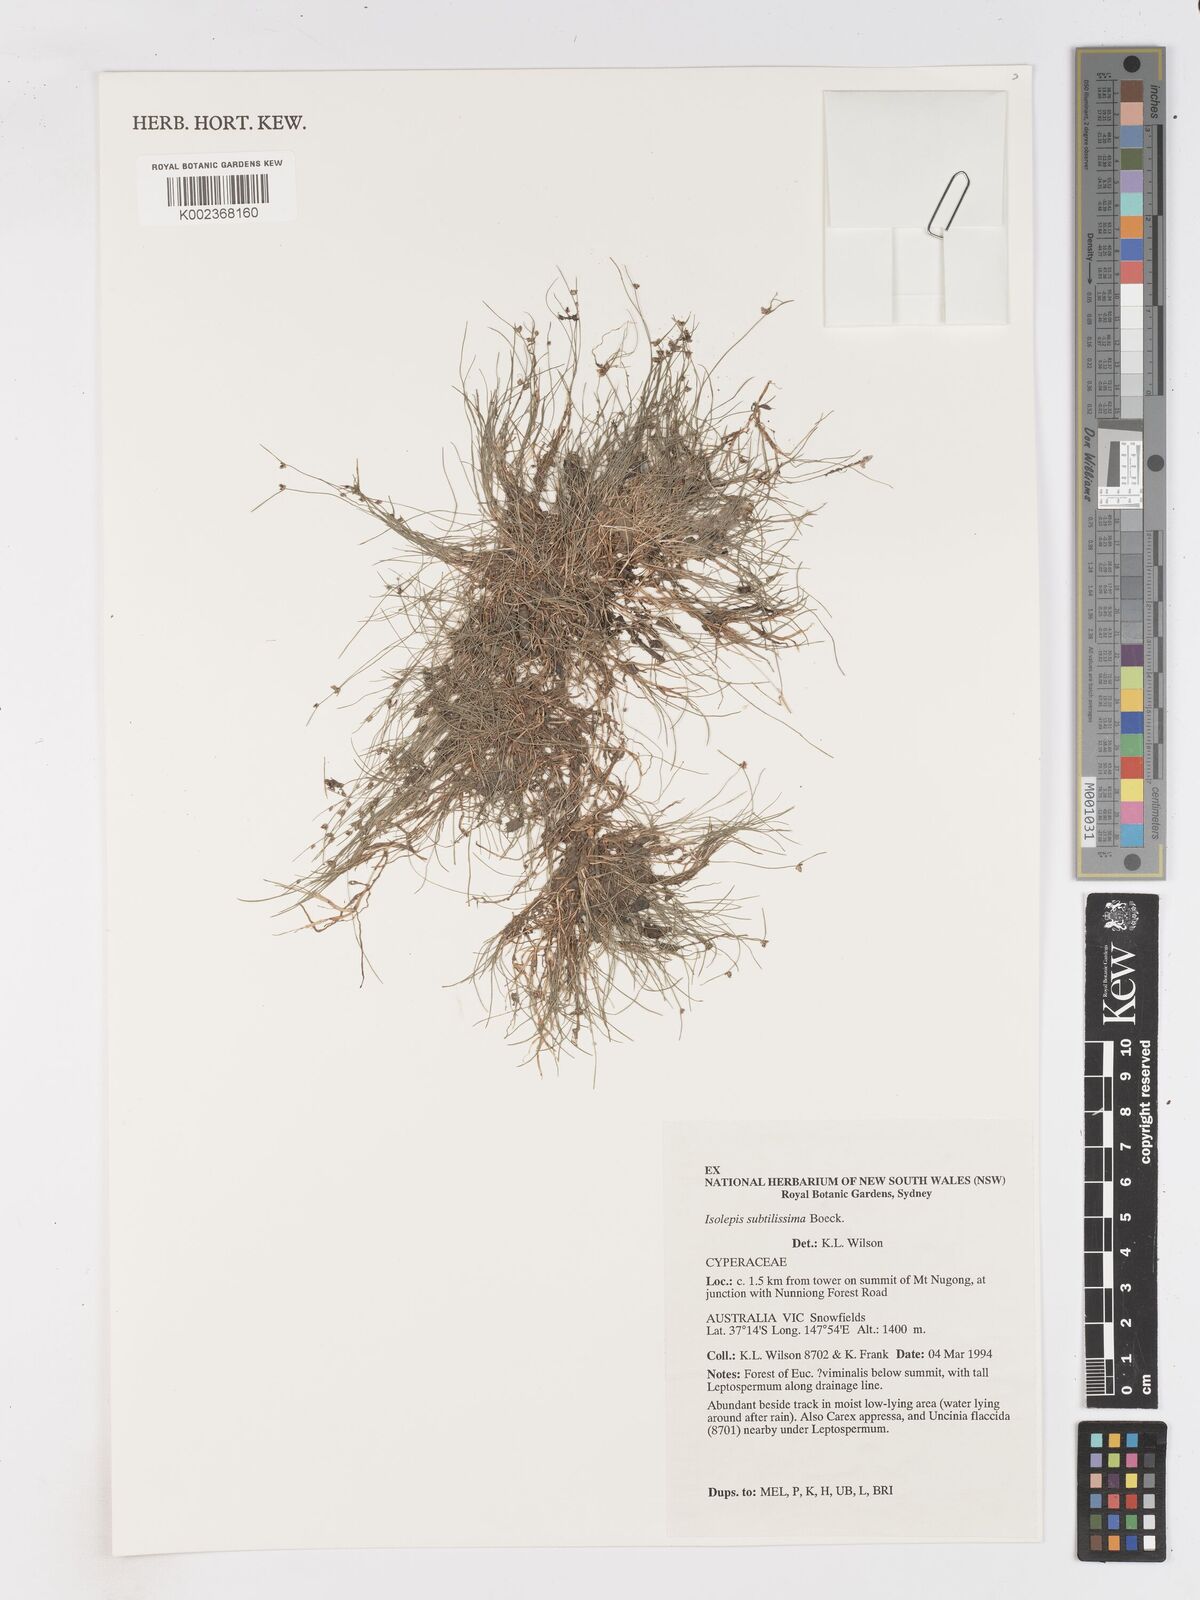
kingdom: Plantae
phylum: Tracheophyta
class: Liliopsida
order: Poales
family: Cyperaceae
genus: Isolepis
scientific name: Isolepis subtilissima
